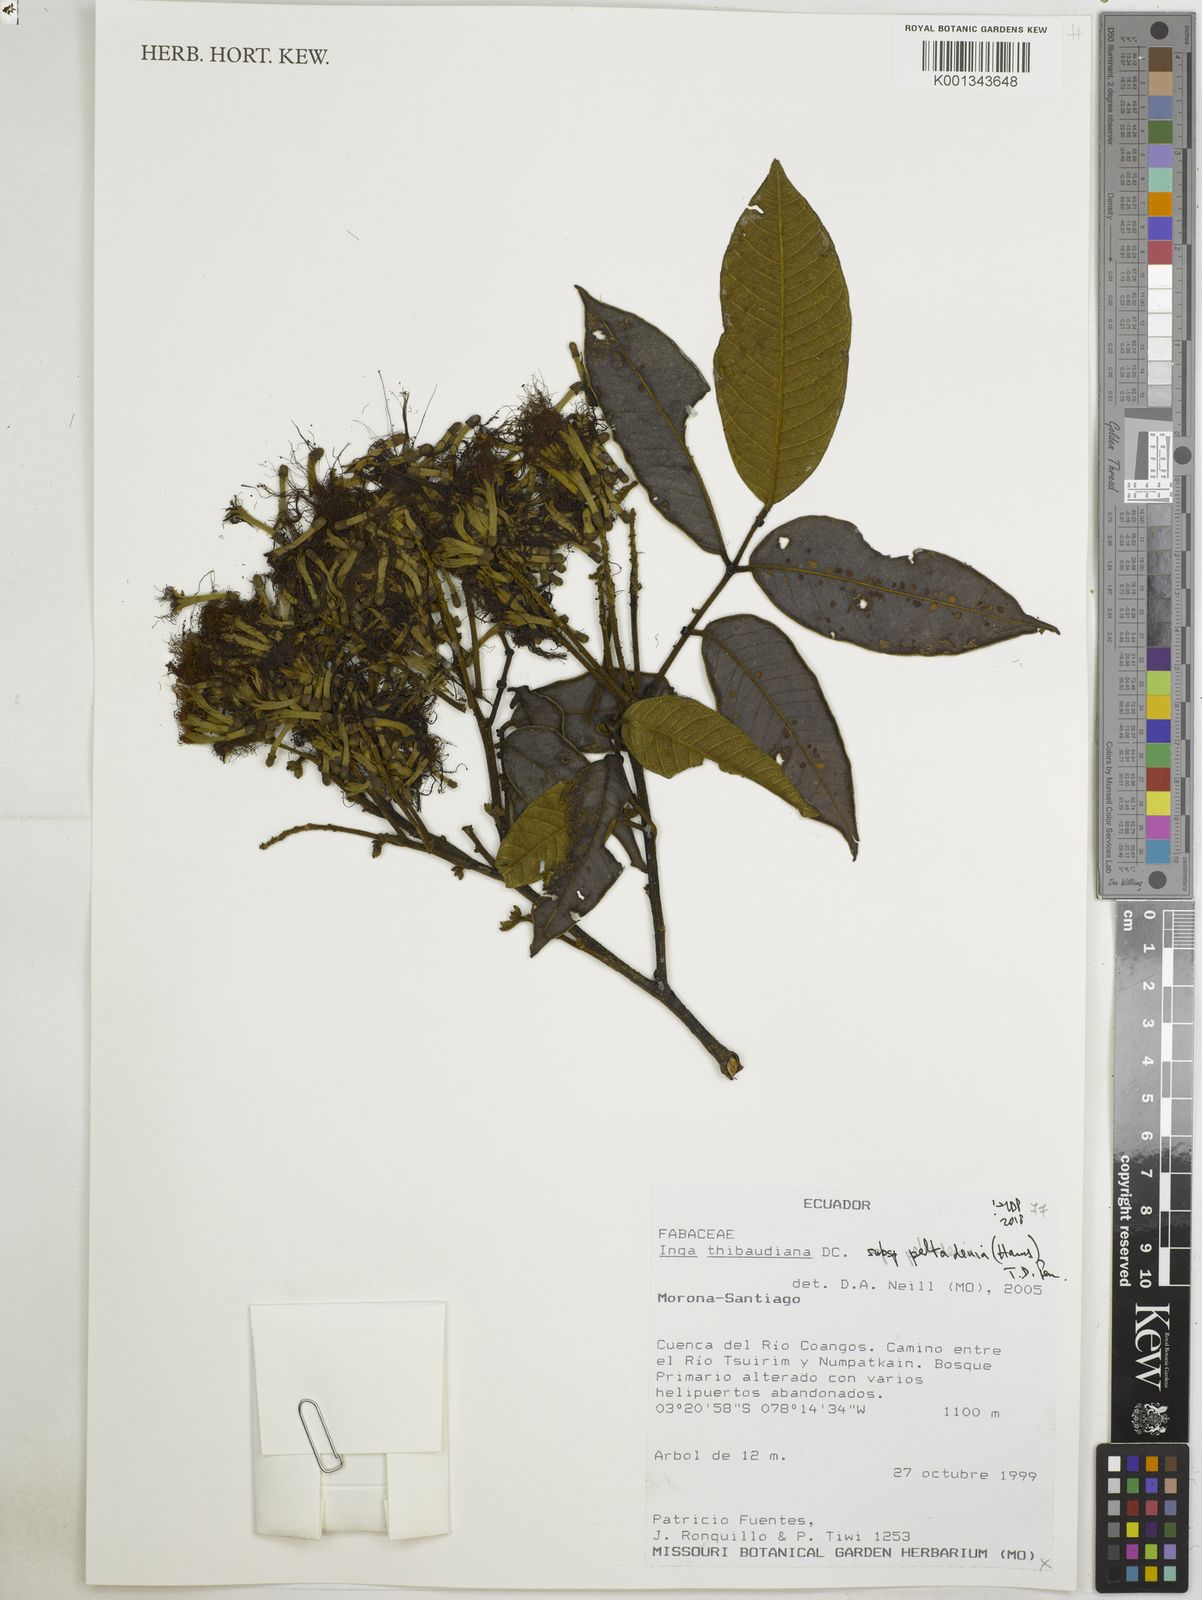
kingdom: Plantae
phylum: Tracheophyta
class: Magnoliopsida
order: Fabales
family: Fabaceae
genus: Inga
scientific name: Inga thibaudiana
